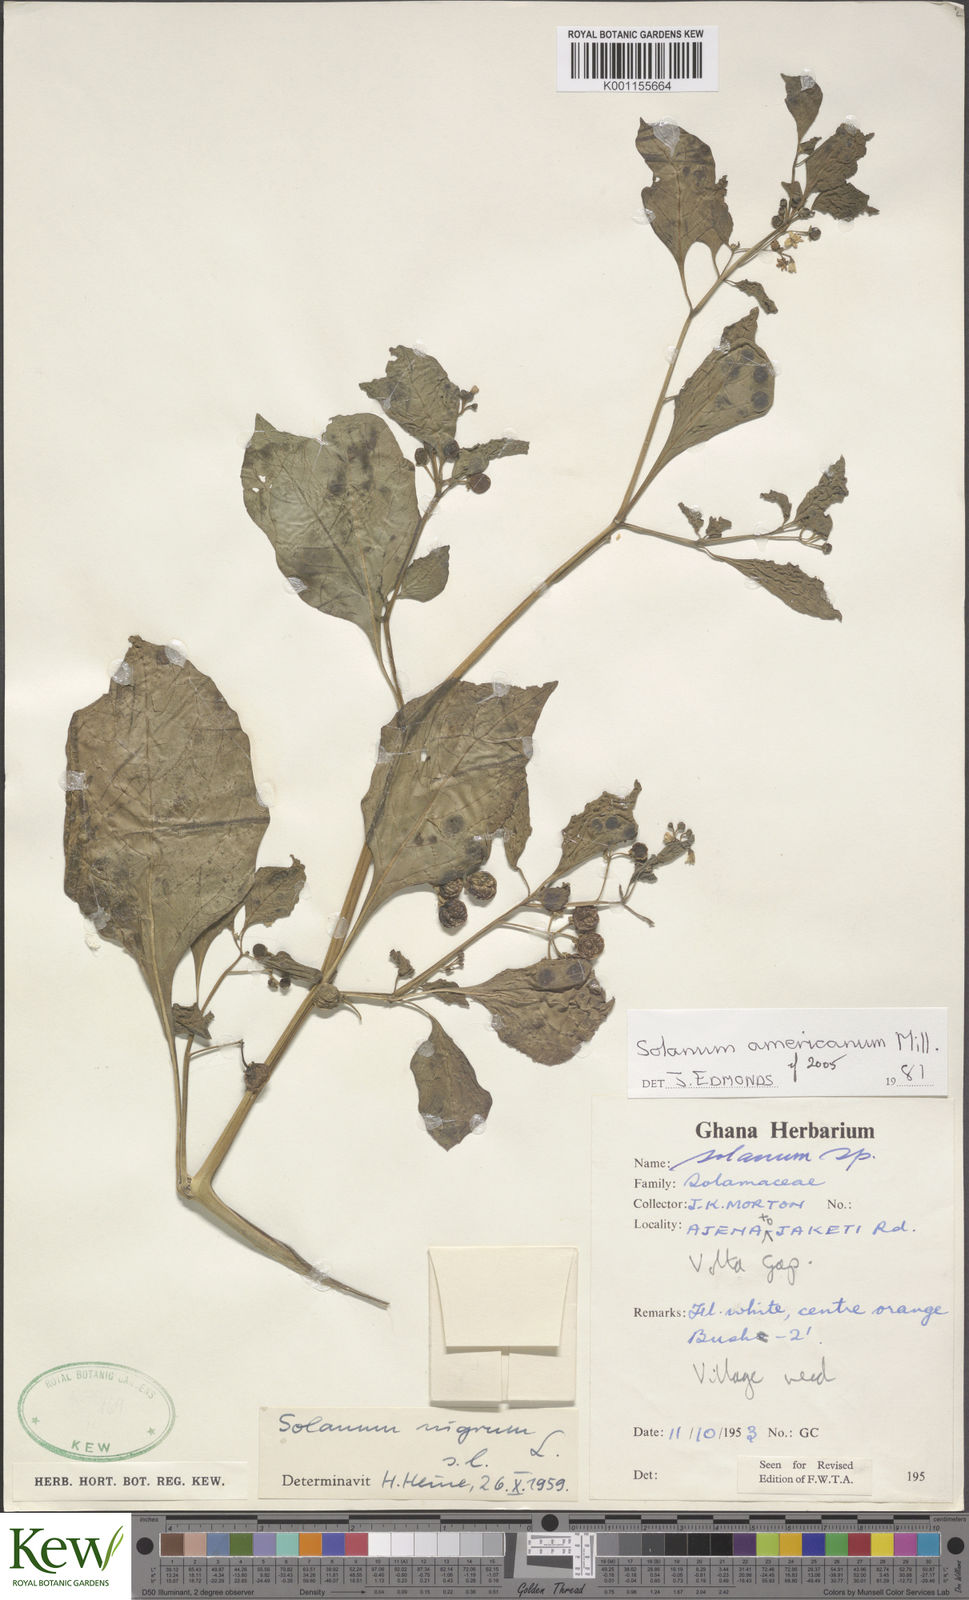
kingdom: Plantae
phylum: Tracheophyta
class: Magnoliopsida
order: Solanales
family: Solanaceae
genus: Solanum
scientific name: Solanum scabrum
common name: Garden-huckleberry
